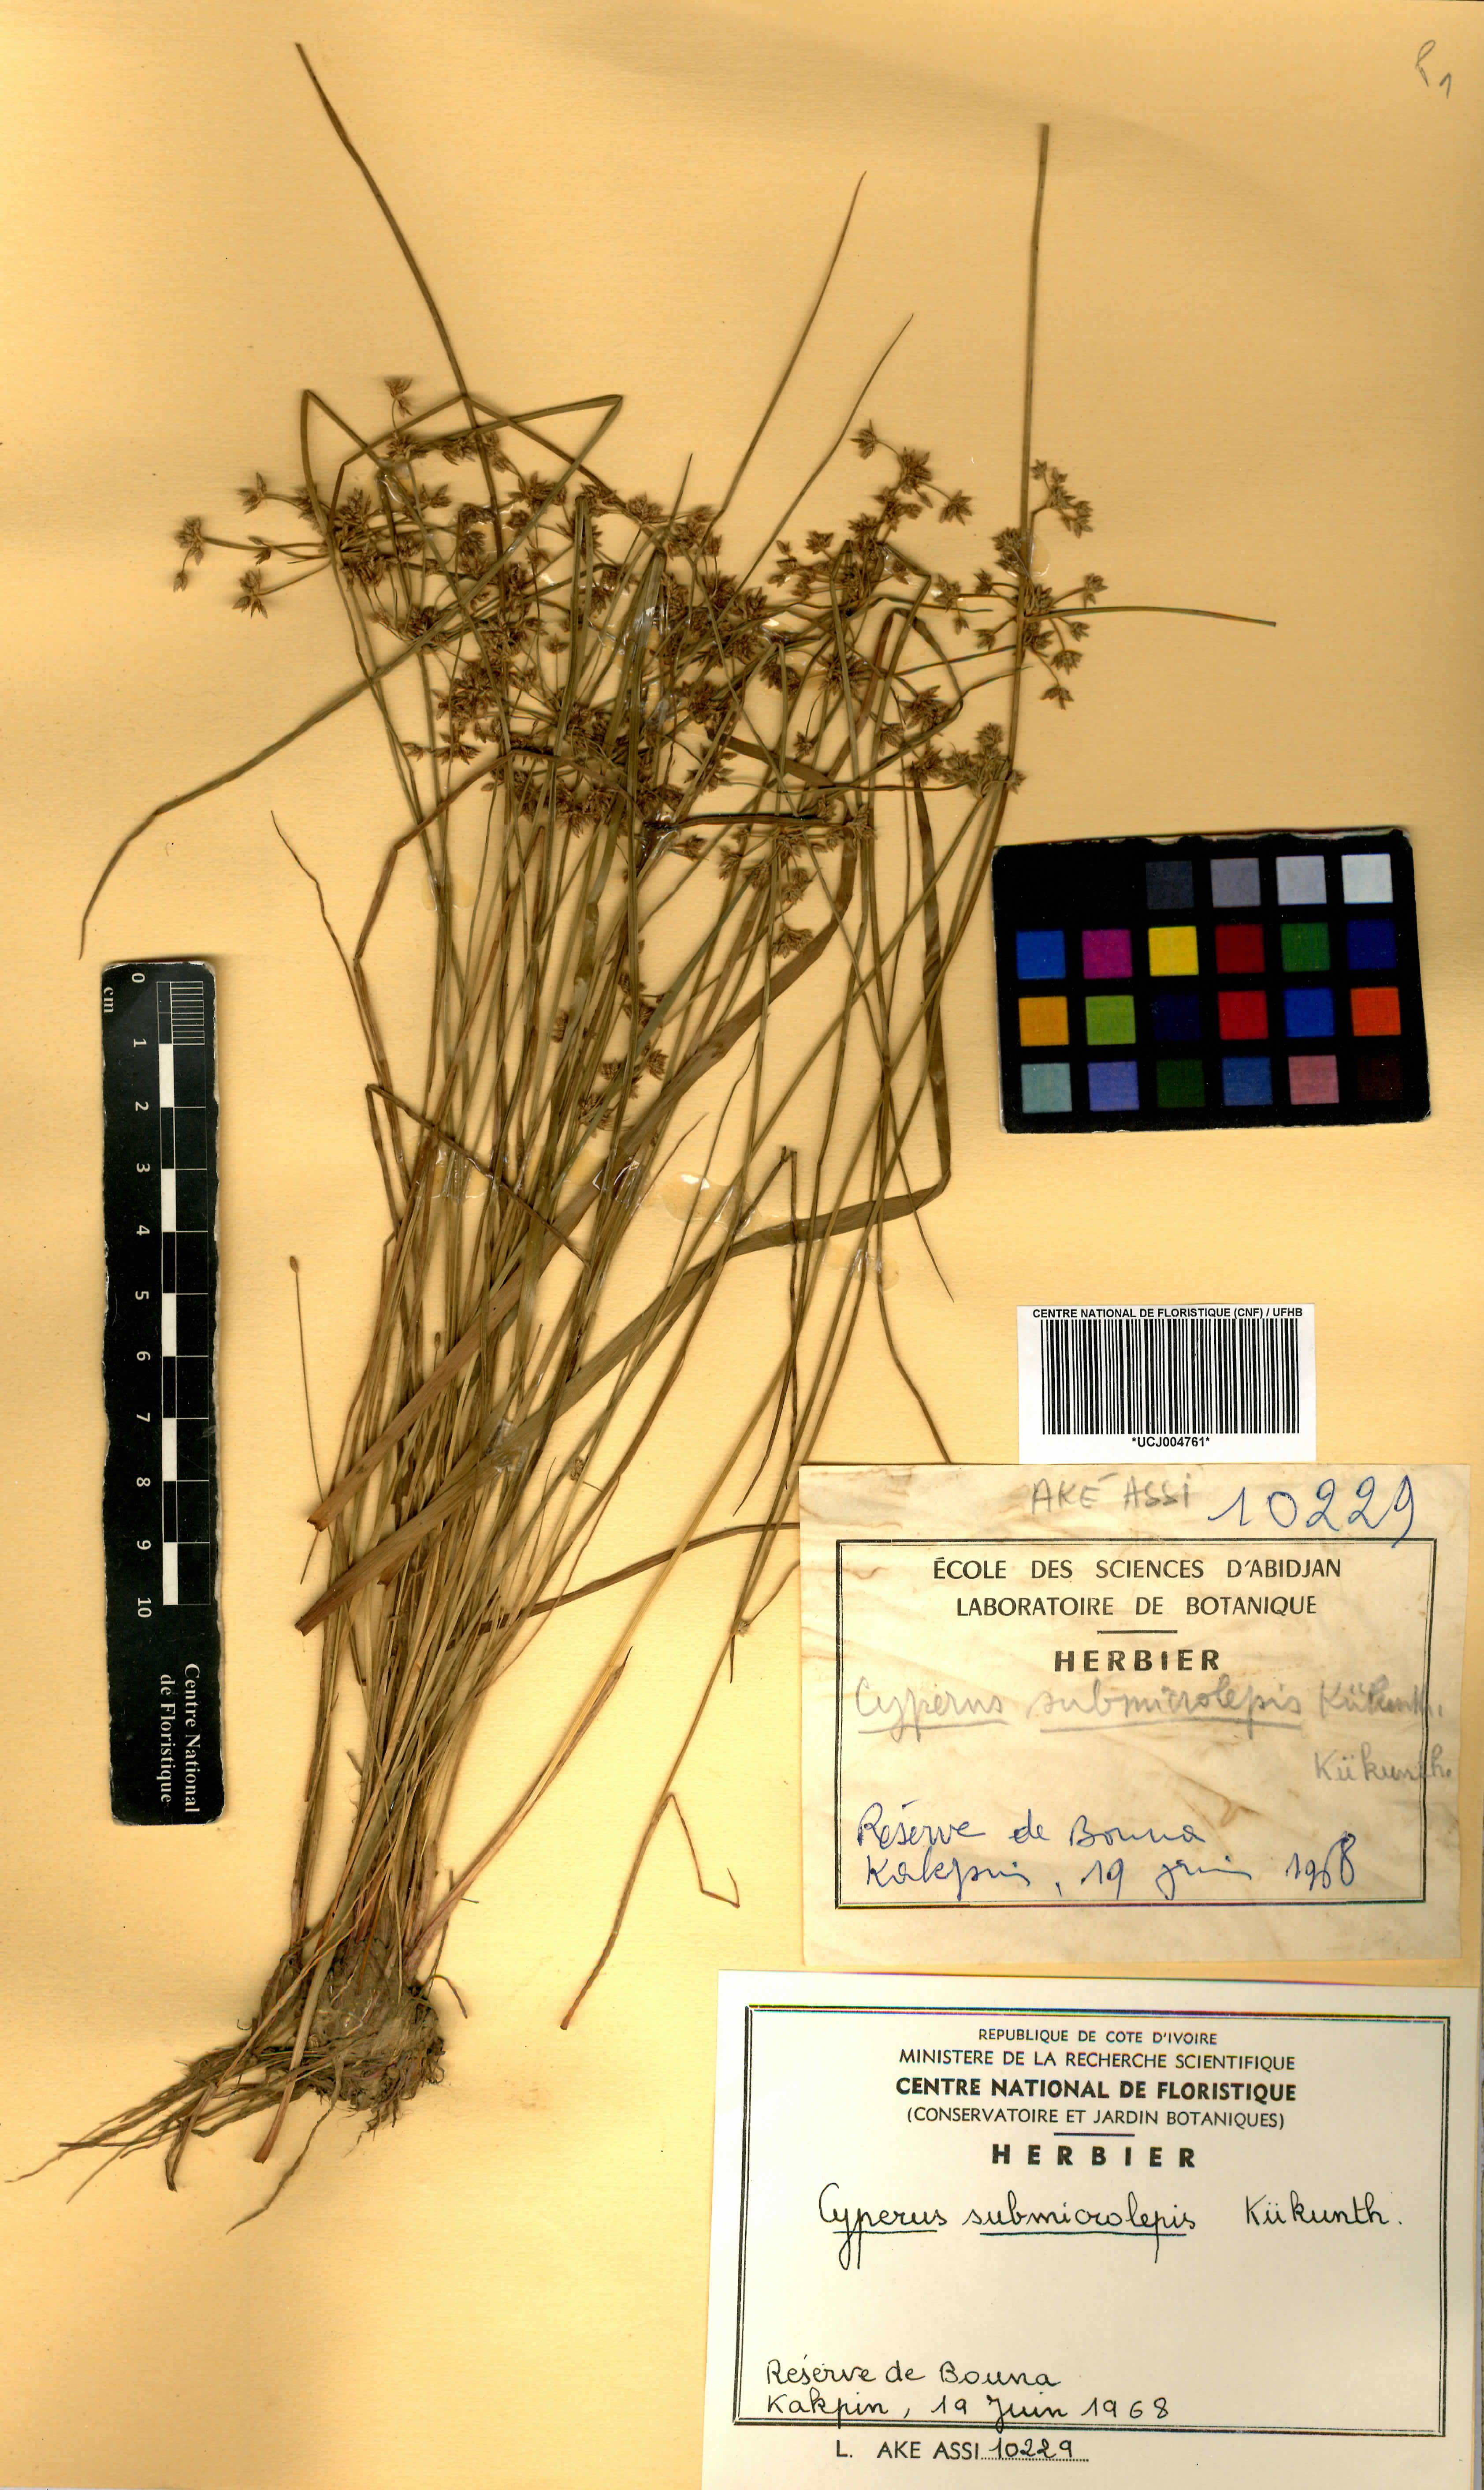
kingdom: Plantae
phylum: Tracheophyta
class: Liliopsida
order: Poales
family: Cyperaceae
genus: Cyperus
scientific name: Cyperus submicrolepis
